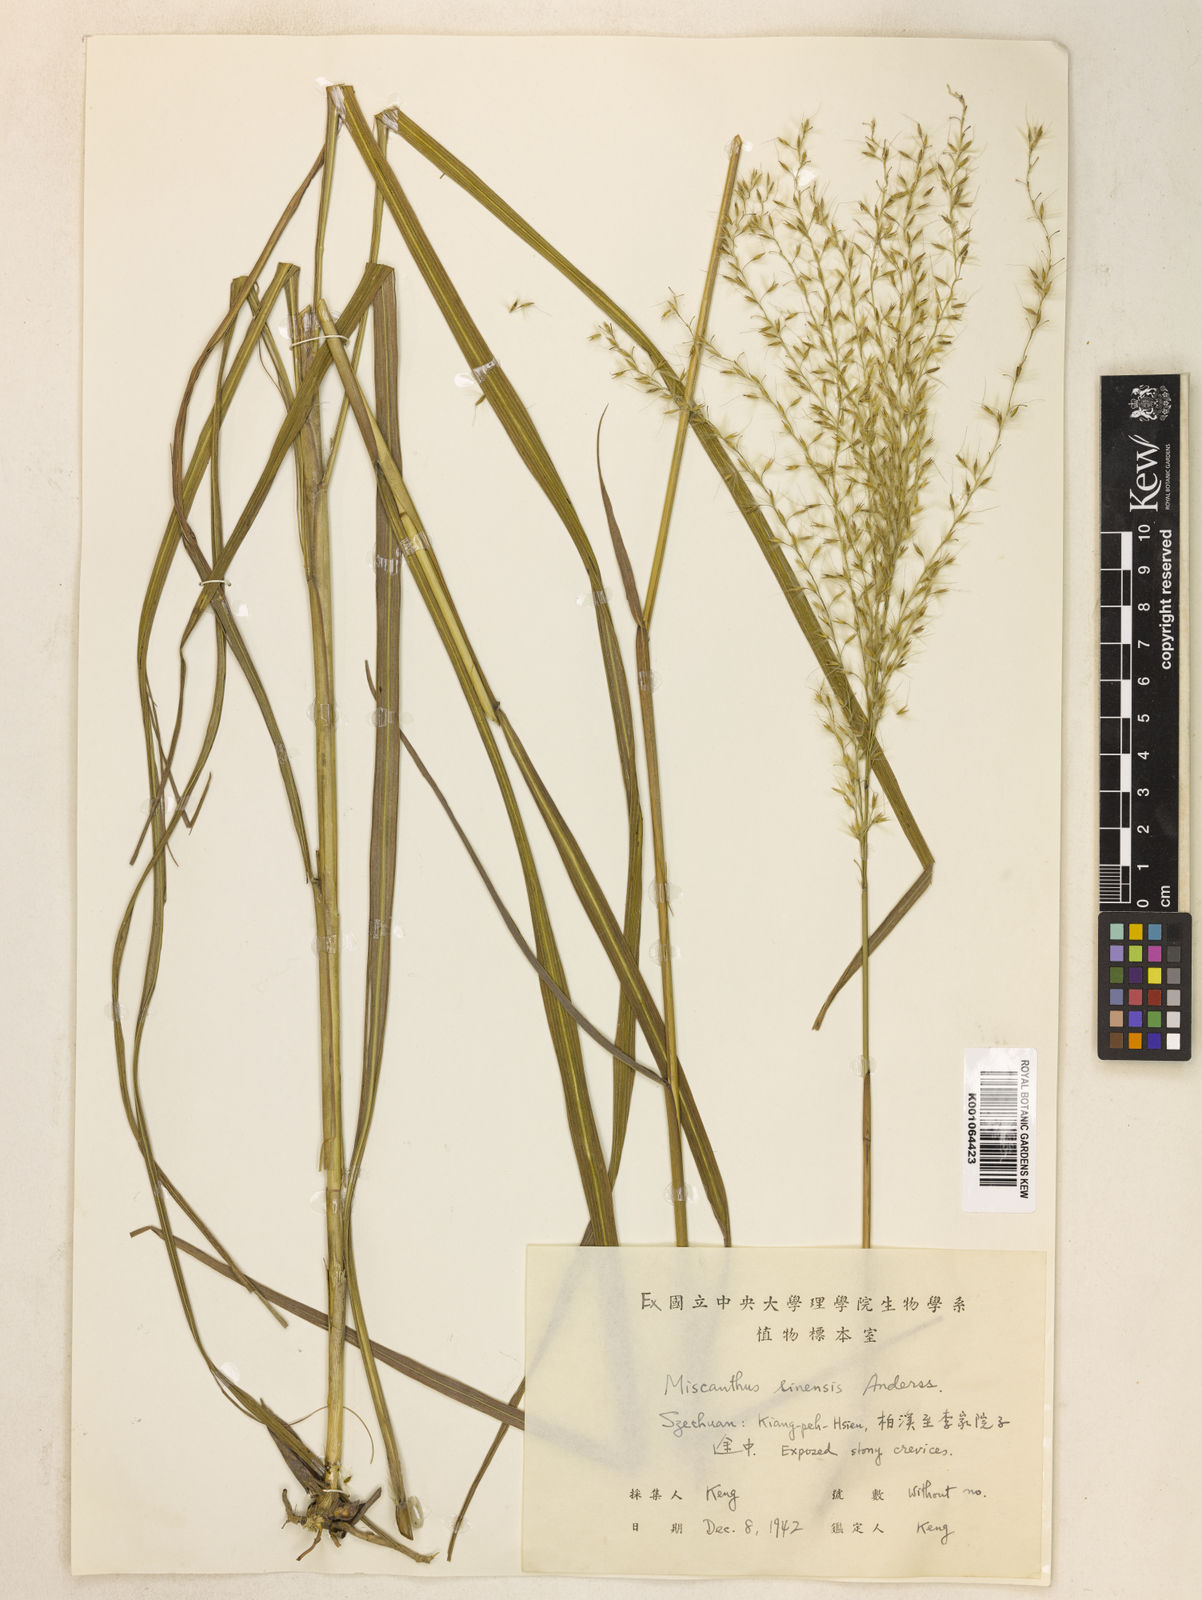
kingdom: Plantae
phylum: Tracheophyta
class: Liliopsida
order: Poales
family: Poaceae
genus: Miscanthus
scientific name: Miscanthus sinensis
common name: Chinese silvergrass
